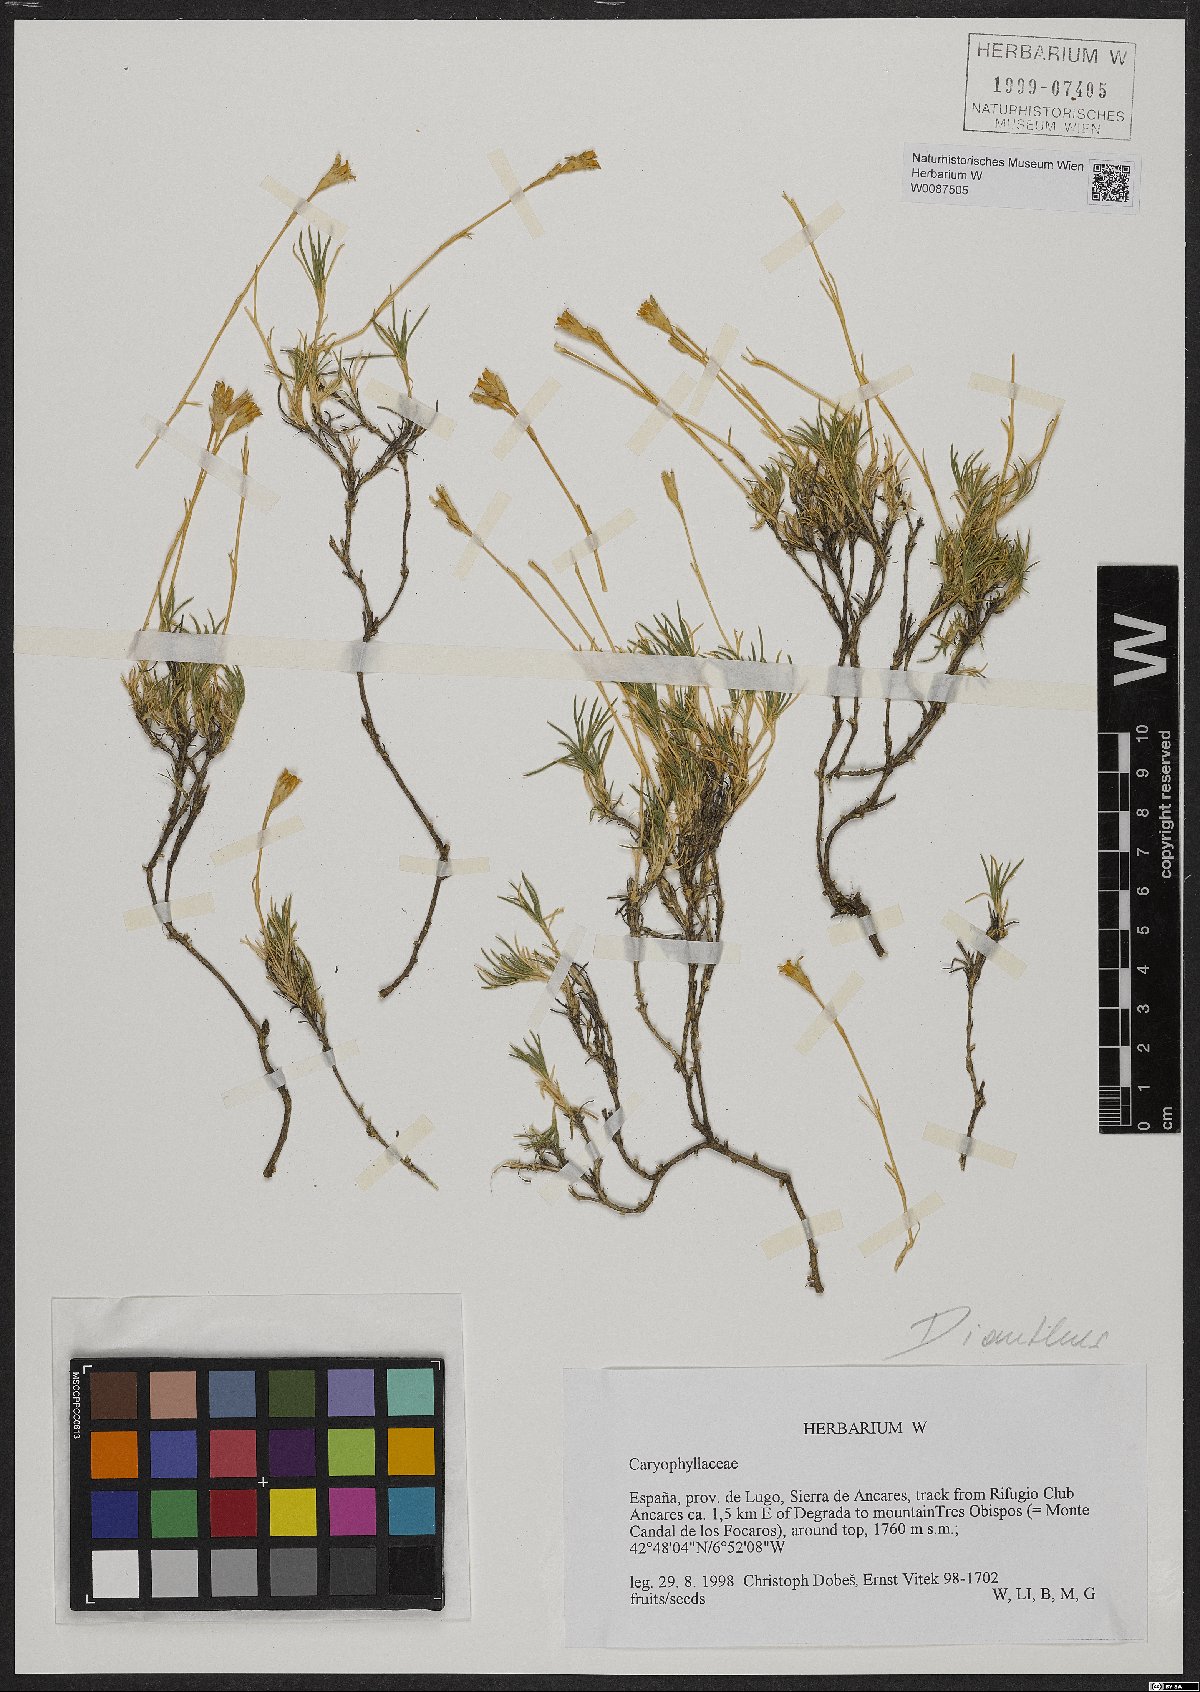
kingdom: Plantae
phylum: Tracheophyta
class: Magnoliopsida
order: Caryophyllales
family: Caryophyllaceae
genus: Dianthus
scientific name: Dianthus
